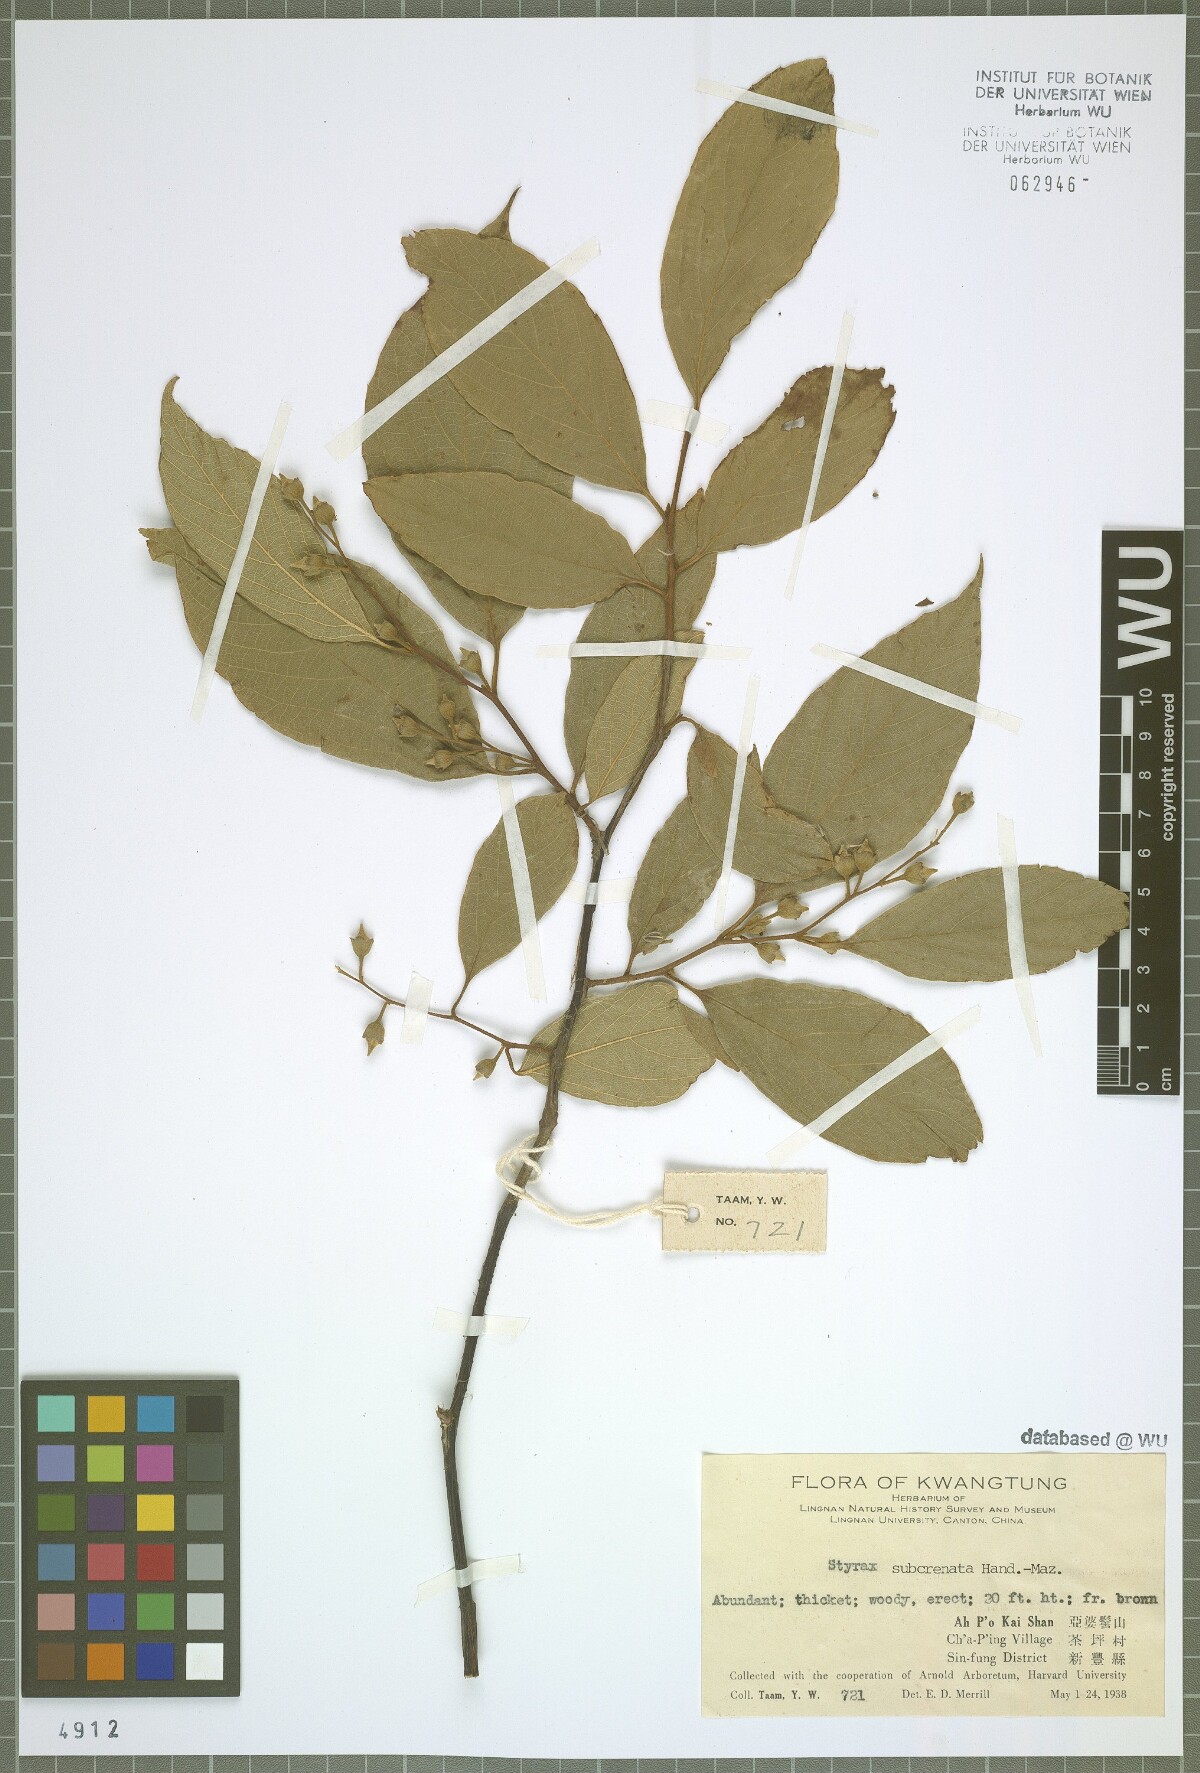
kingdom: Plantae
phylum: Tracheophyta
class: Magnoliopsida
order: Ericales
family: Styracaceae
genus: Styrax
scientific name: Styrax finlaysonianus
